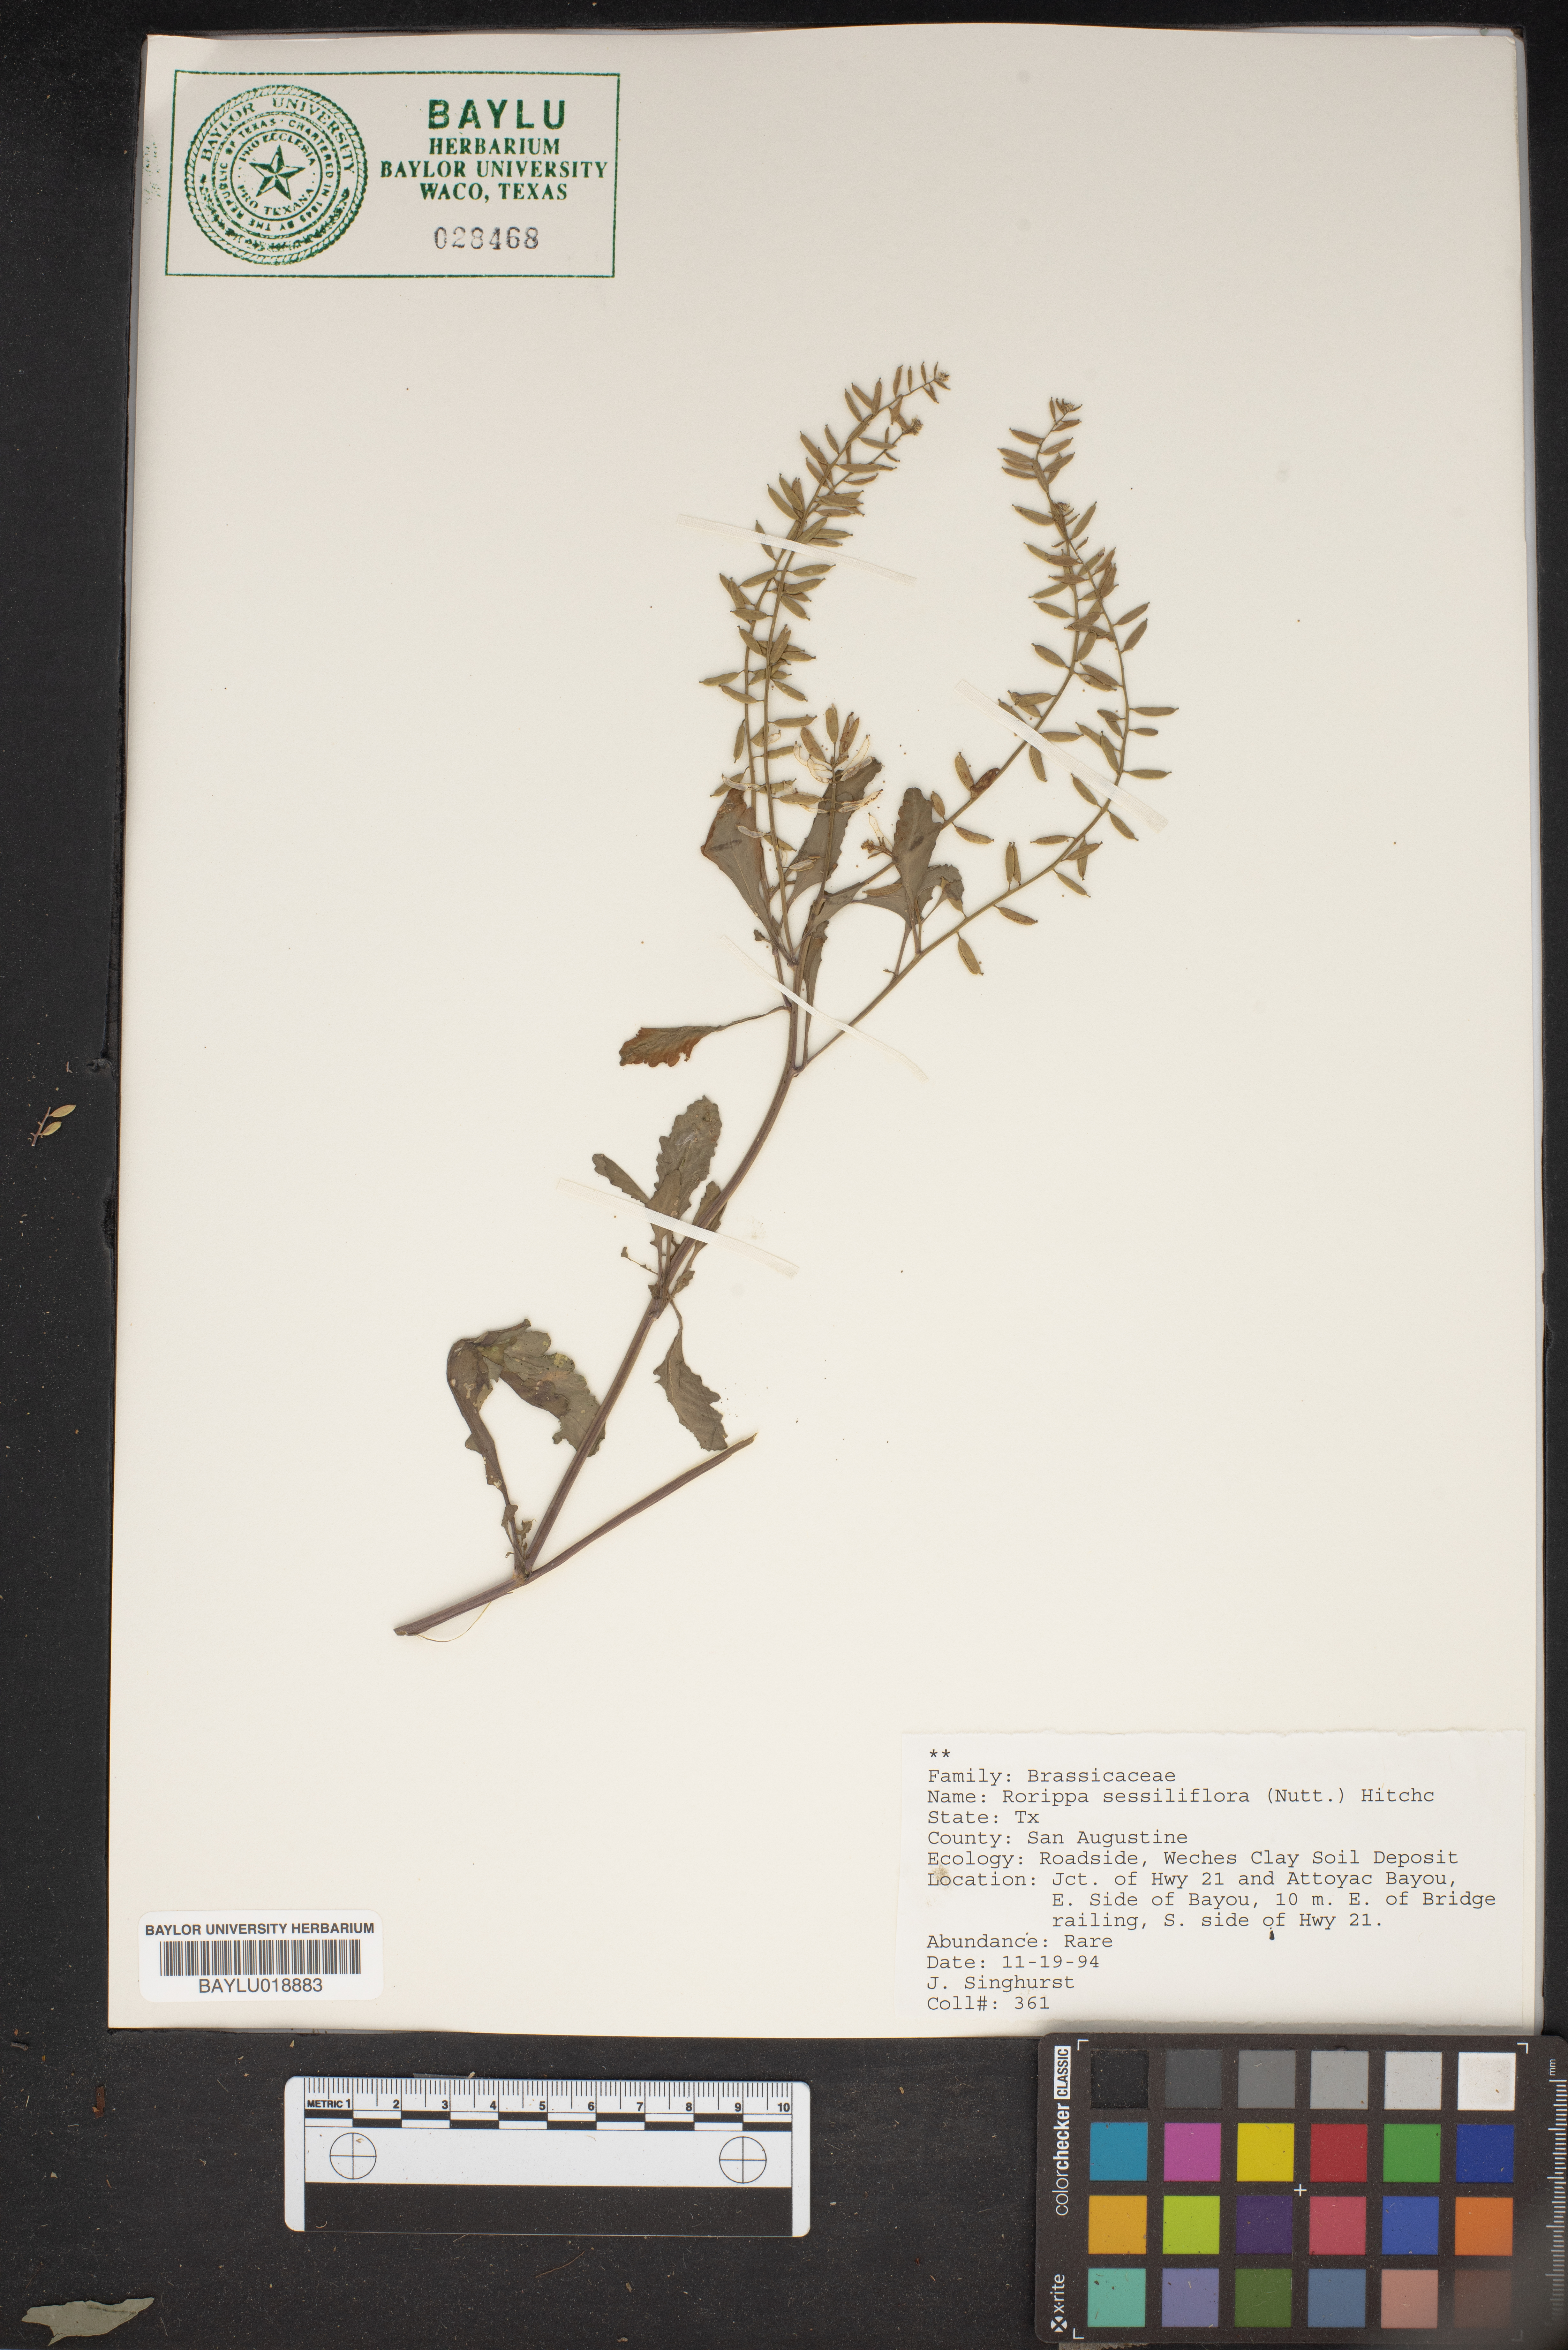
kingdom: Plantae
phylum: Tracheophyta
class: Magnoliopsida
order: Brassicales
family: Brassicaceae
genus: Rorippa
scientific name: Rorippa sessiliflora
